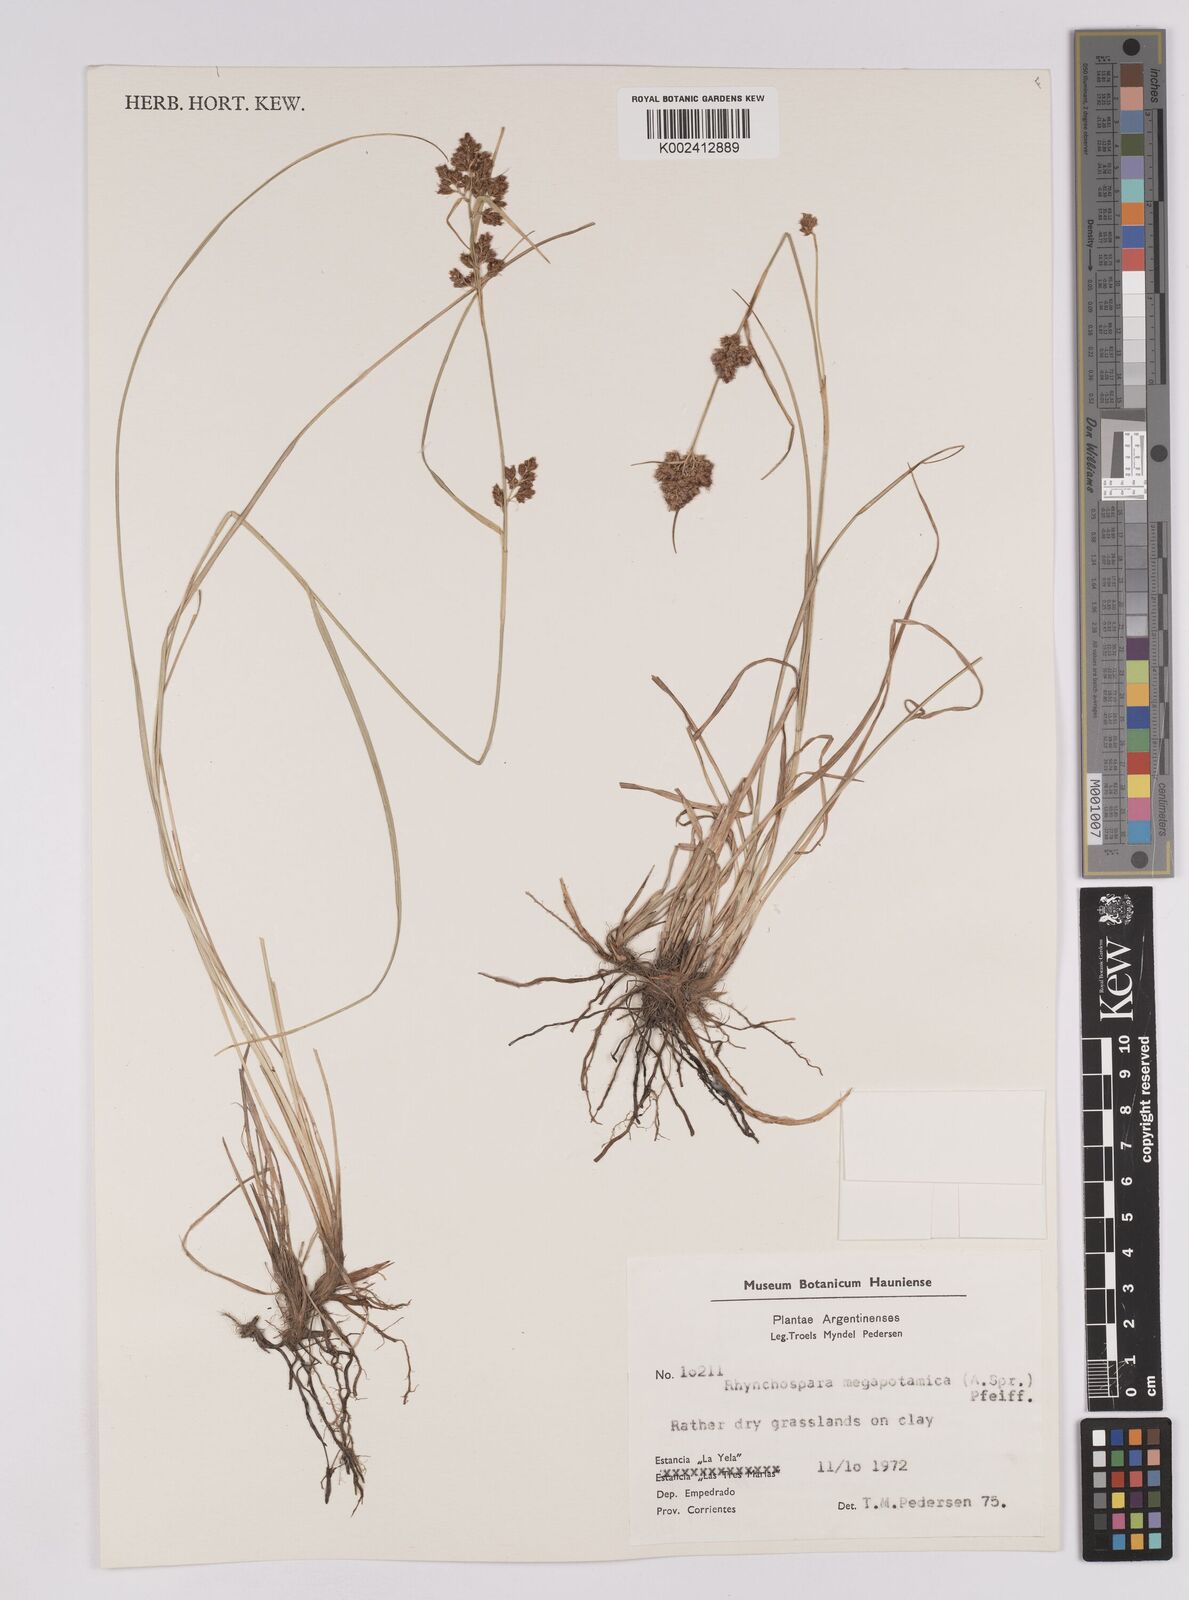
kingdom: Plantae
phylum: Tracheophyta
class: Liliopsida
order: Poales
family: Cyperaceae
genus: Rhynchospora
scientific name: Rhynchospora megapotamica
